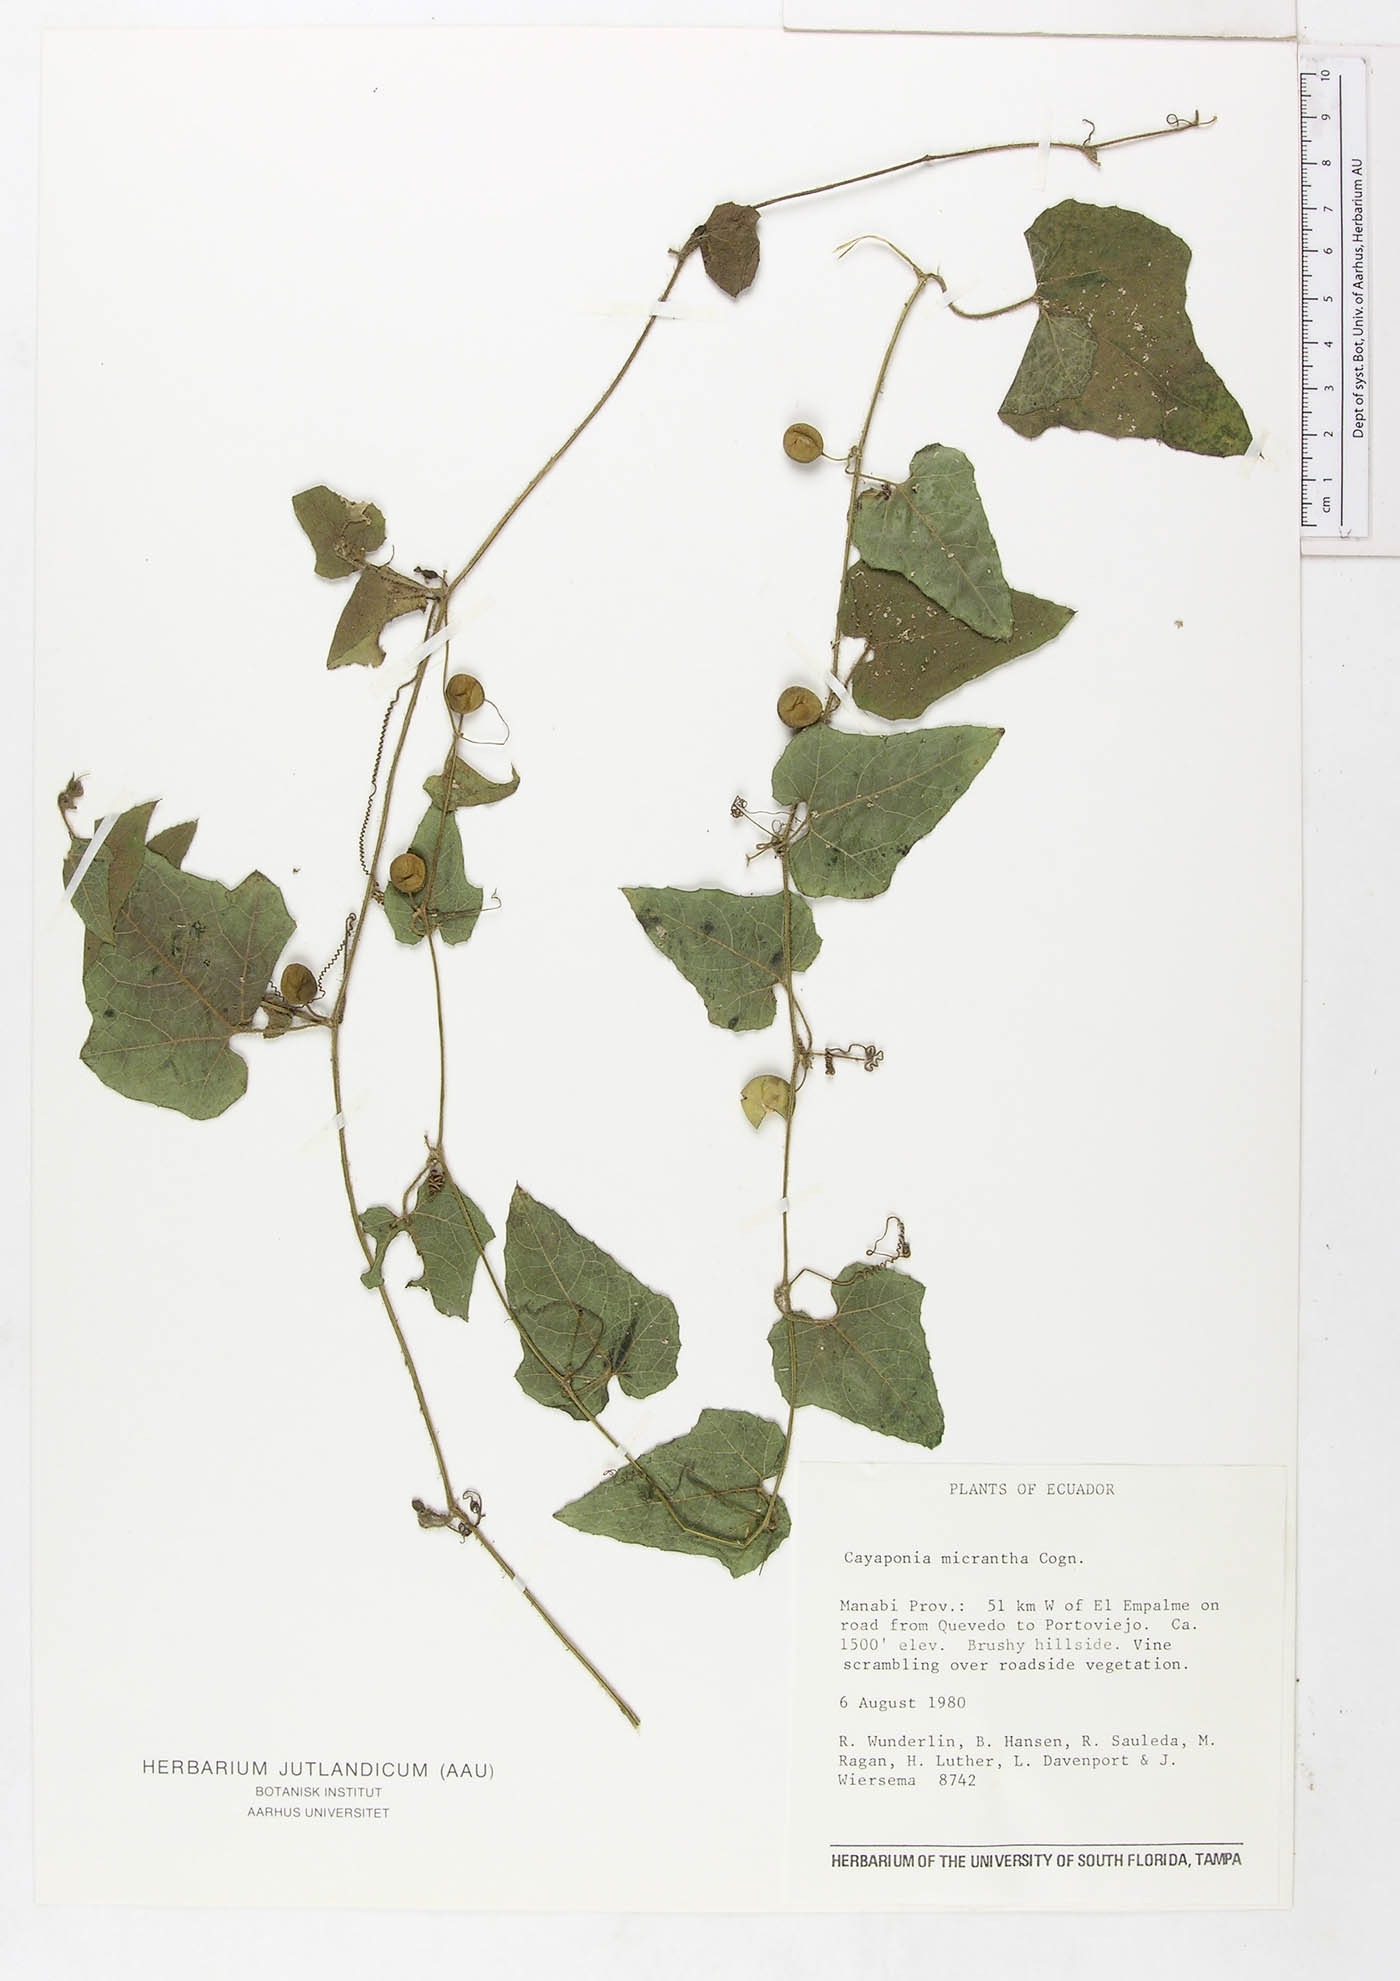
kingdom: Plantae
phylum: Tracheophyta
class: Magnoliopsida
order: Cucurbitales
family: Cucurbitaceae
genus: Cayaponia
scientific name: Cayaponia triangularis
